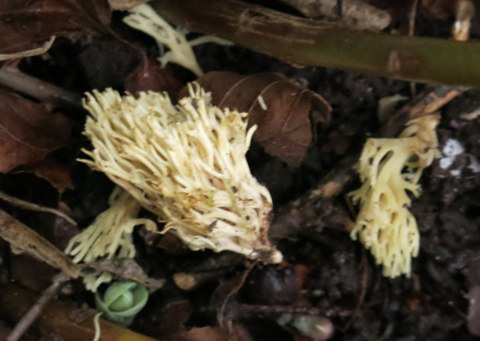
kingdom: Fungi
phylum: Basidiomycota
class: Agaricomycetes
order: Agaricales
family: Clavariaceae
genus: Ramariopsis
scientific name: Ramariopsis
